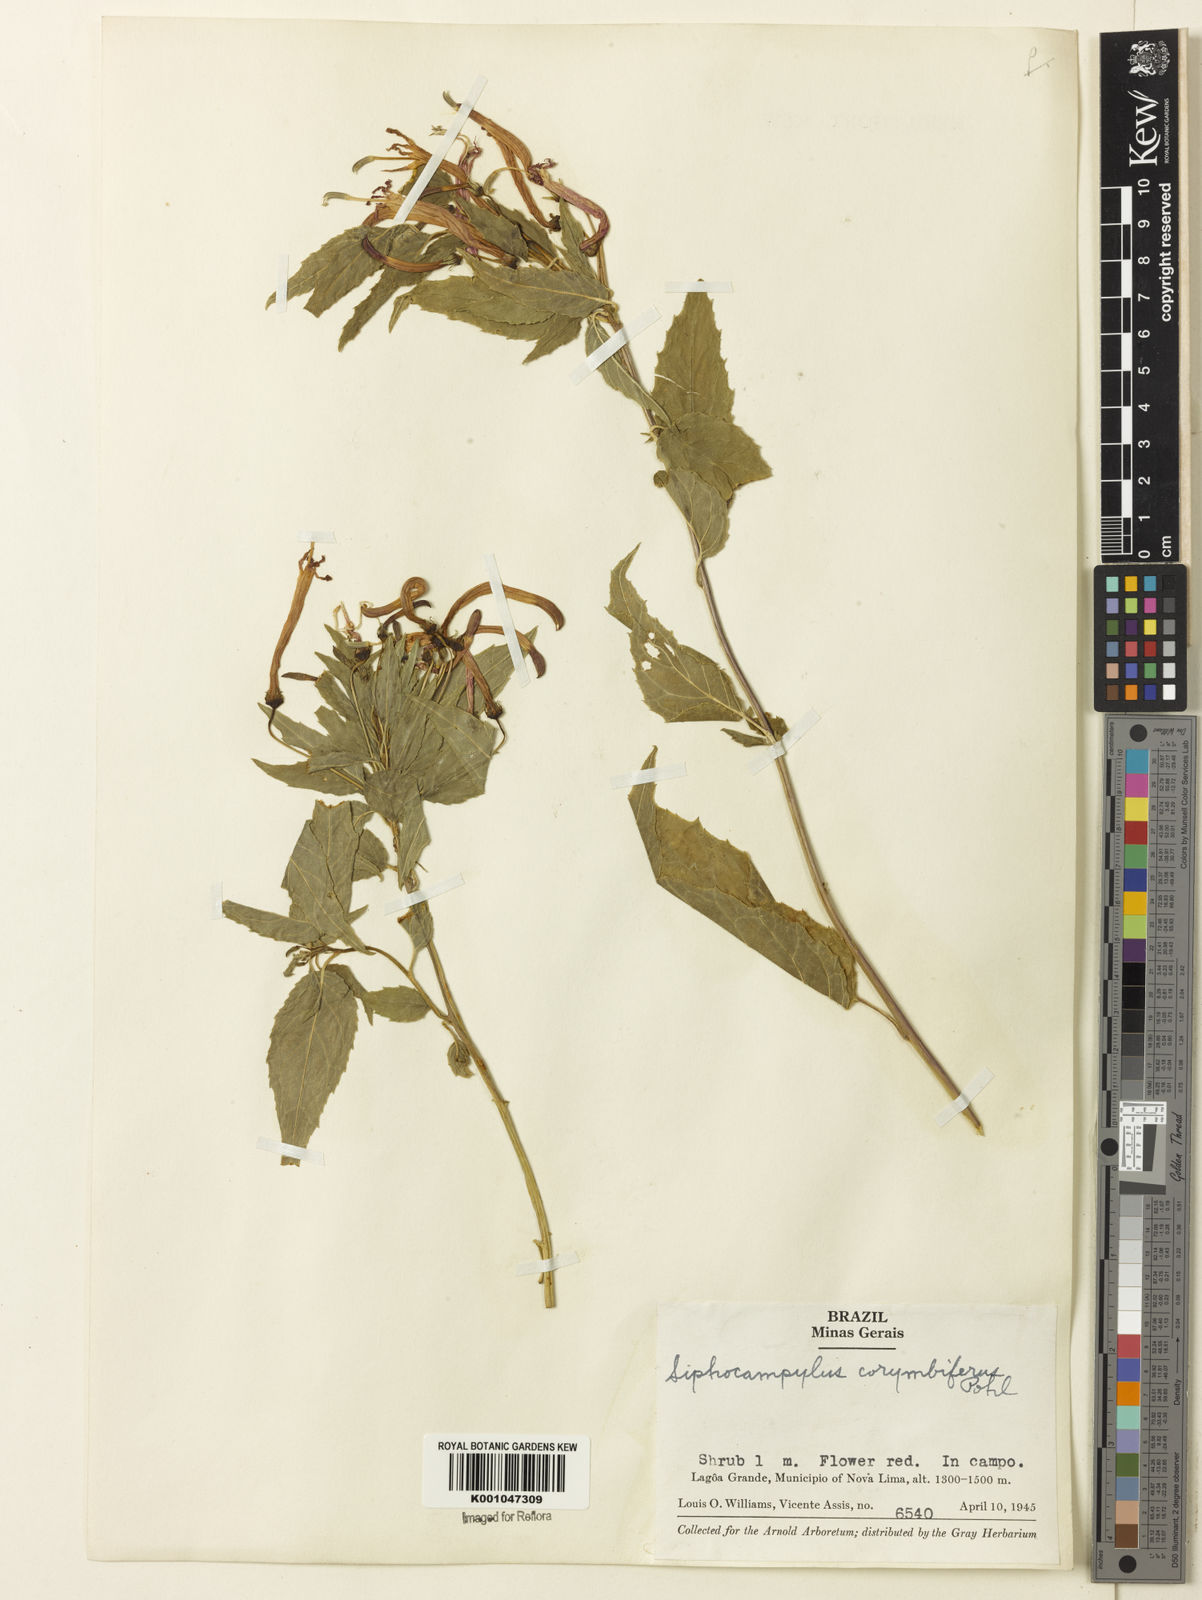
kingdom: Plantae
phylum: Tracheophyta
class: Magnoliopsida
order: Asterales
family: Campanulaceae
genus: Siphocampylus
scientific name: Siphocampylus corymbifer
